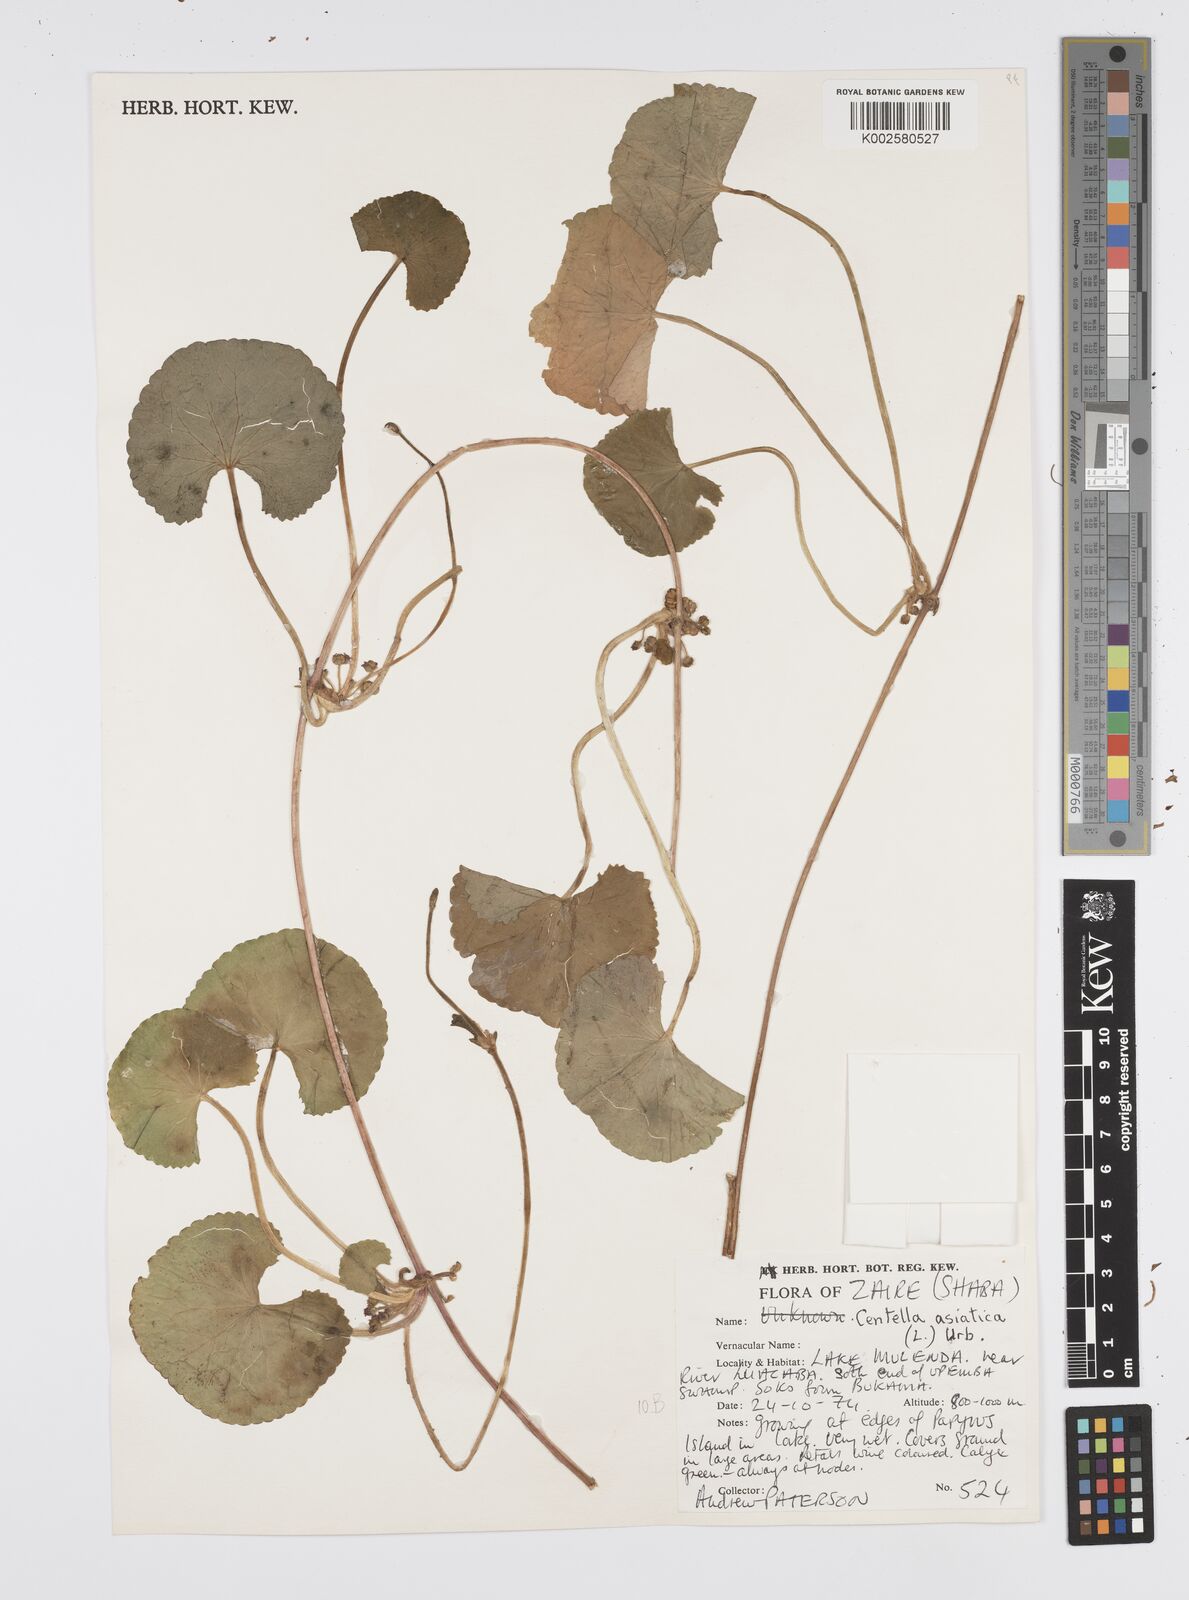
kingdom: Plantae
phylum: Tracheophyta
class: Magnoliopsida
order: Apiales
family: Apiaceae
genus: Centella
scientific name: Centella asiatica
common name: Spadeleaf
